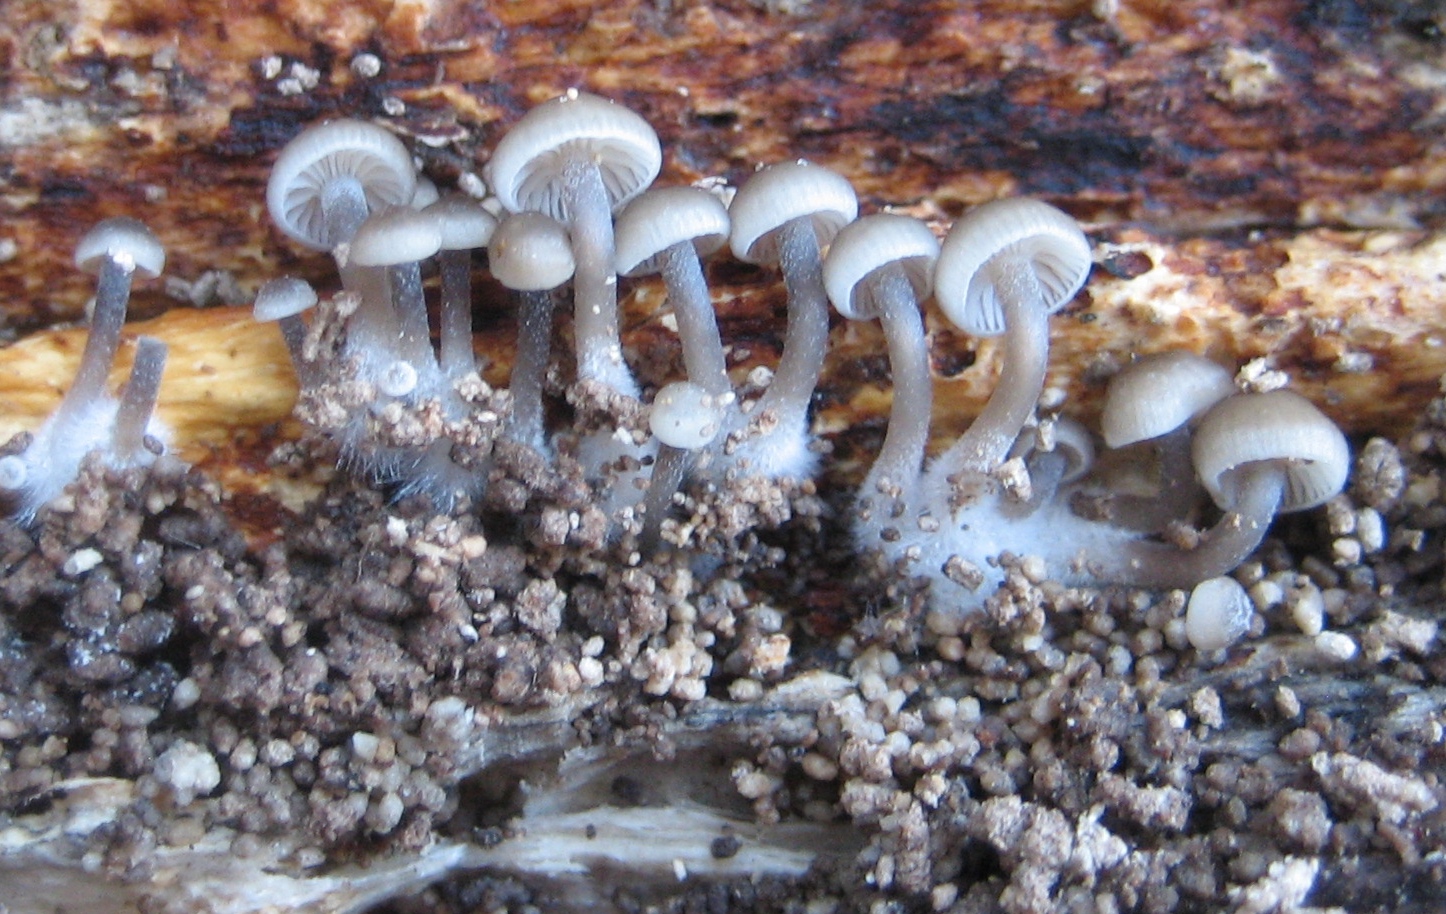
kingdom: Fungi
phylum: Basidiomycota
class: Agaricomycetes
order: Agaricales
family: Mycenaceae
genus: Mycena
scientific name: Mycena tintinnabulum
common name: vinter-huesvamp
